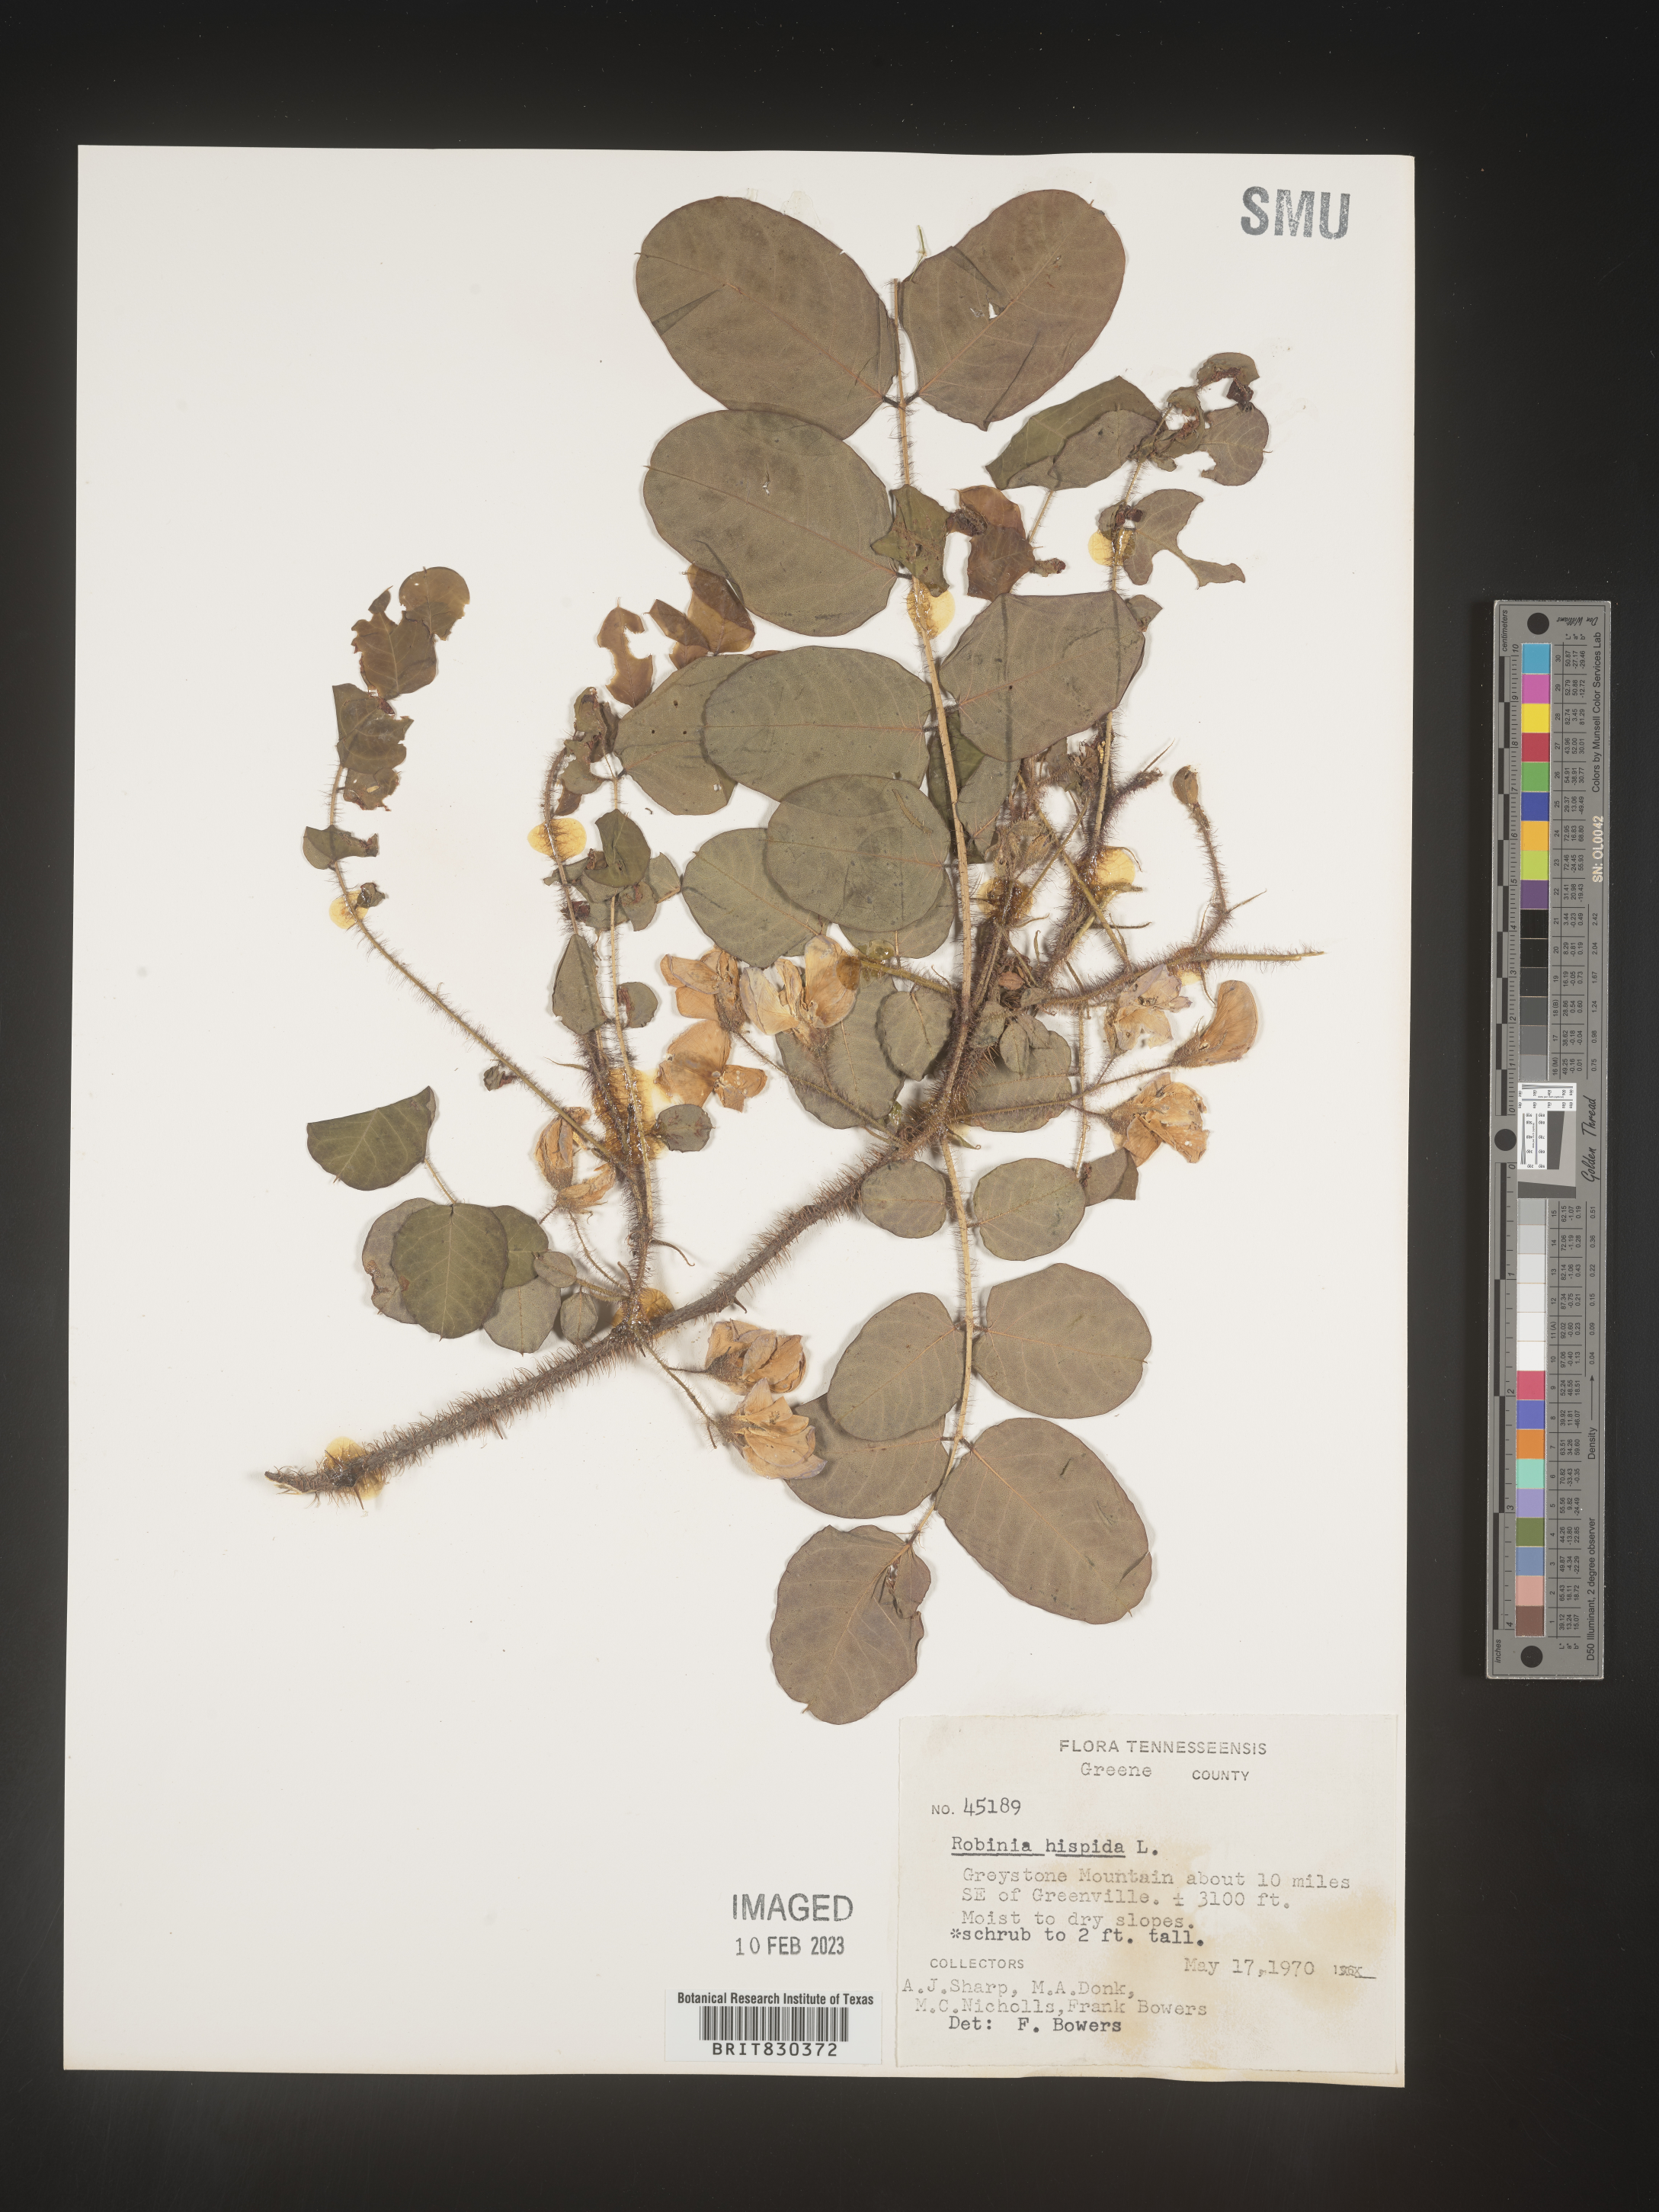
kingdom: Plantae
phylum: Tracheophyta
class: Magnoliopsida
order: Fabales
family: Fabaceae
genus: Robinia
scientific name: Robinia hispida
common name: Bristly locust
